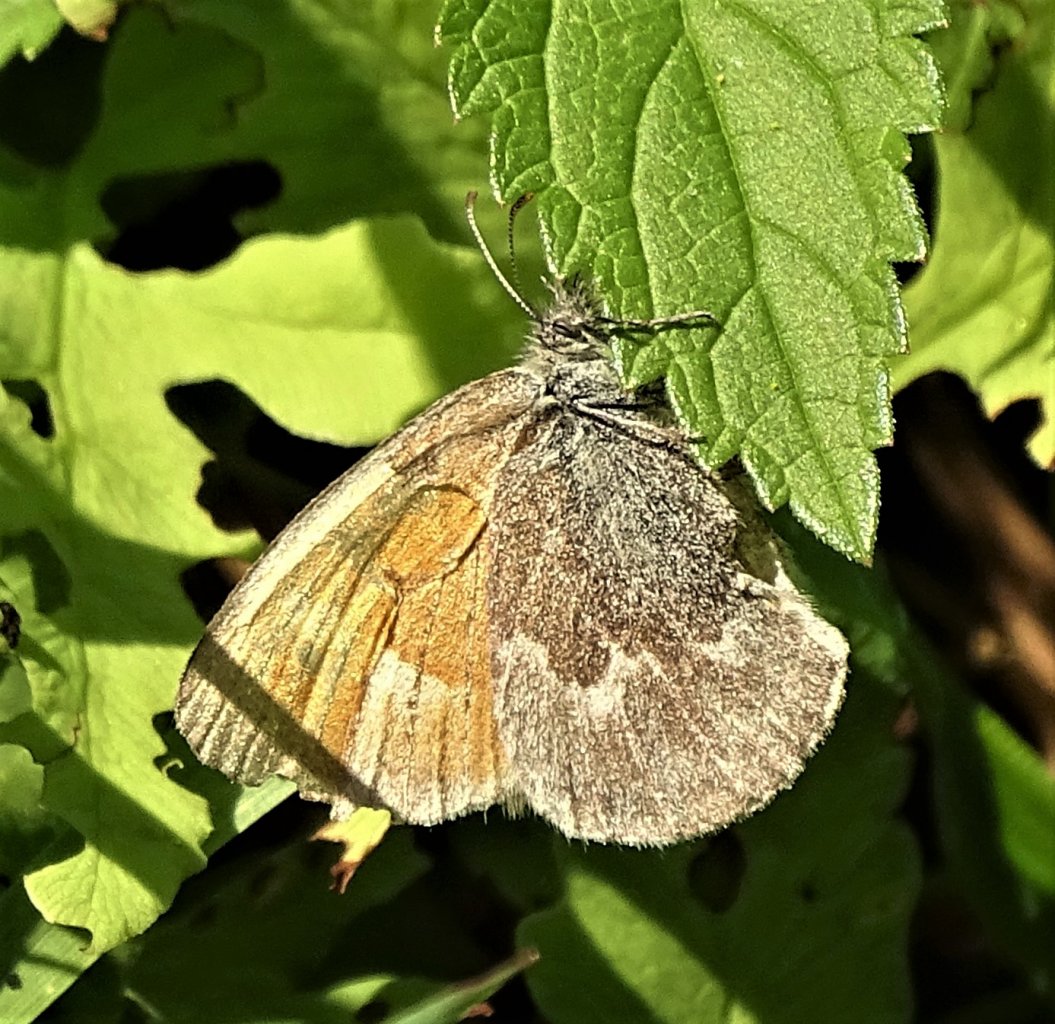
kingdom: Animalia
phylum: Arthropoda
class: Insecta
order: Lepidoptera
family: Nymphalidae
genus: Coenonympha
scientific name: Coenonympha tullia
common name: Large Heath
